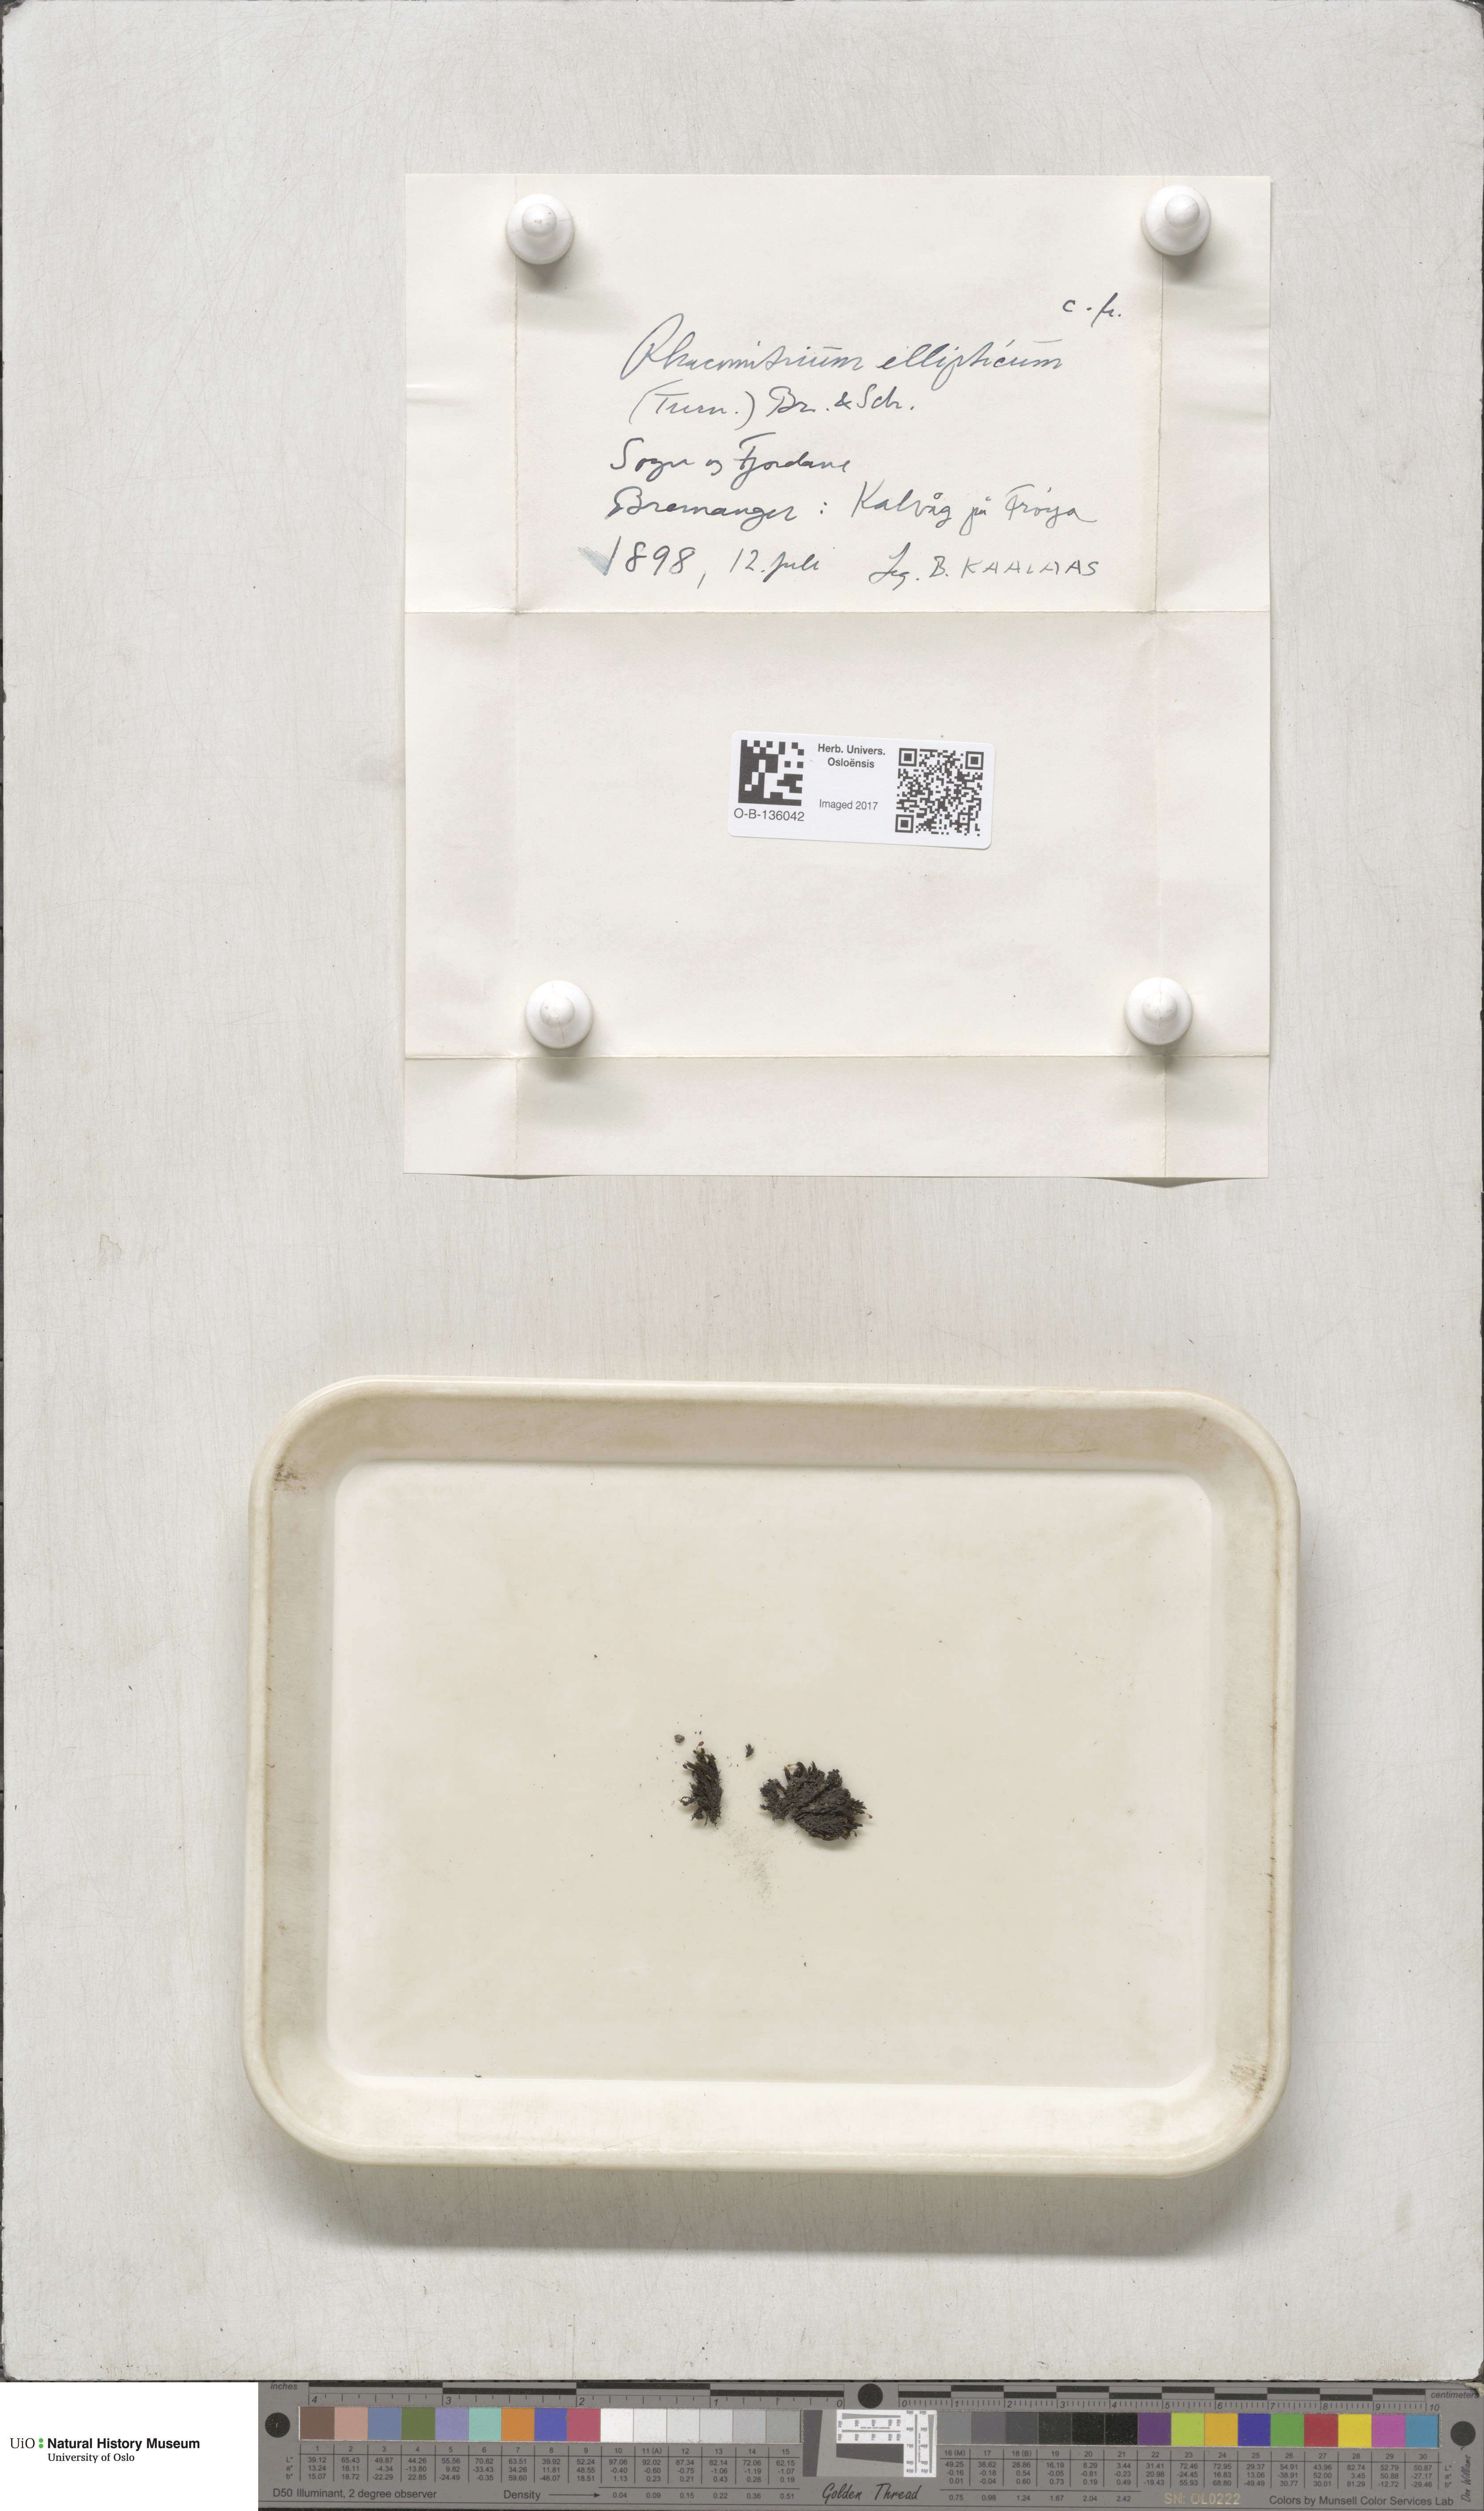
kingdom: Plantae
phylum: Bryophyta
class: Bryopsida
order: Grimmiales
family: Grimmiaceae
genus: Bucklandiella
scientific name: Bucklandiella elliptica
